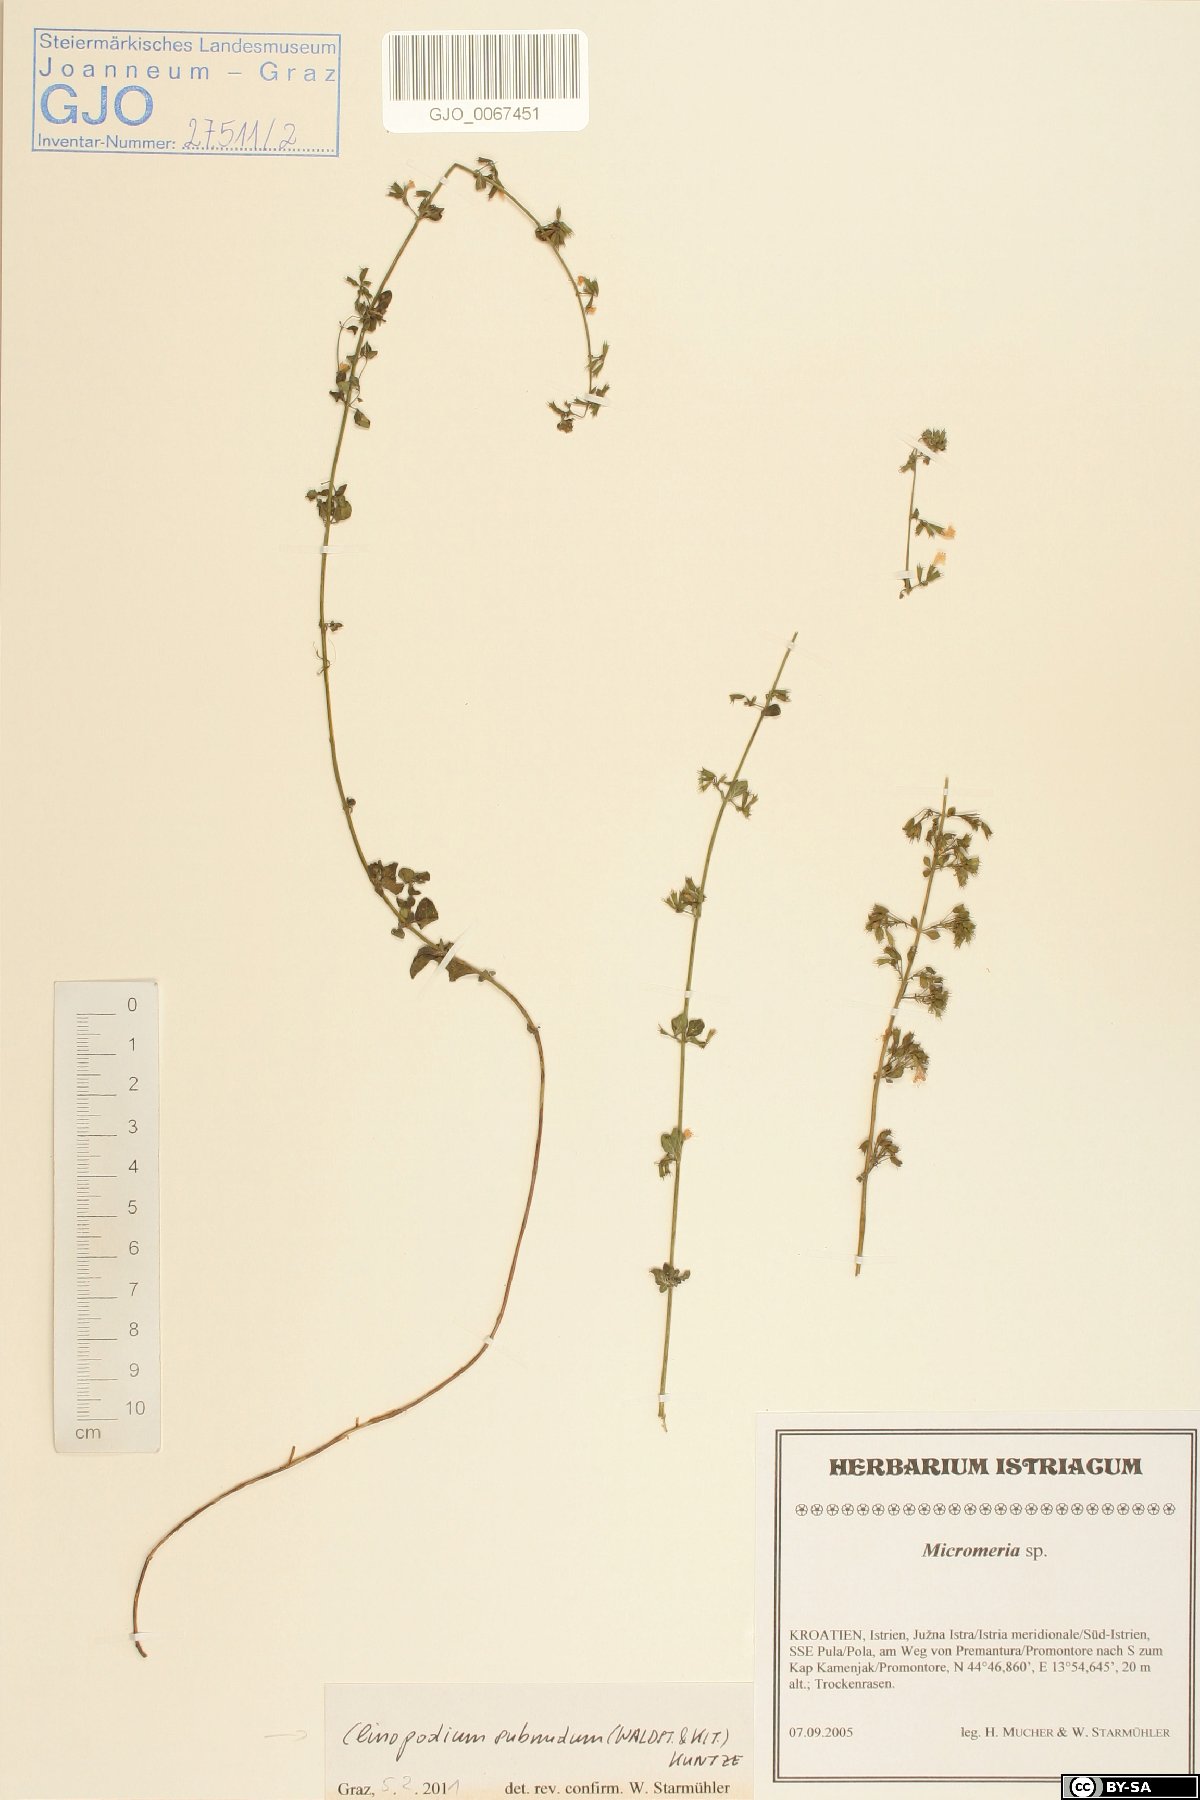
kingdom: Plantae
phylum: Tracheophyta
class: Magnoliopsida
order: Lamiales
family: Lamiaceae
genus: Clinopodium
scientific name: Clinopodium nepeta
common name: Lesser calamint
